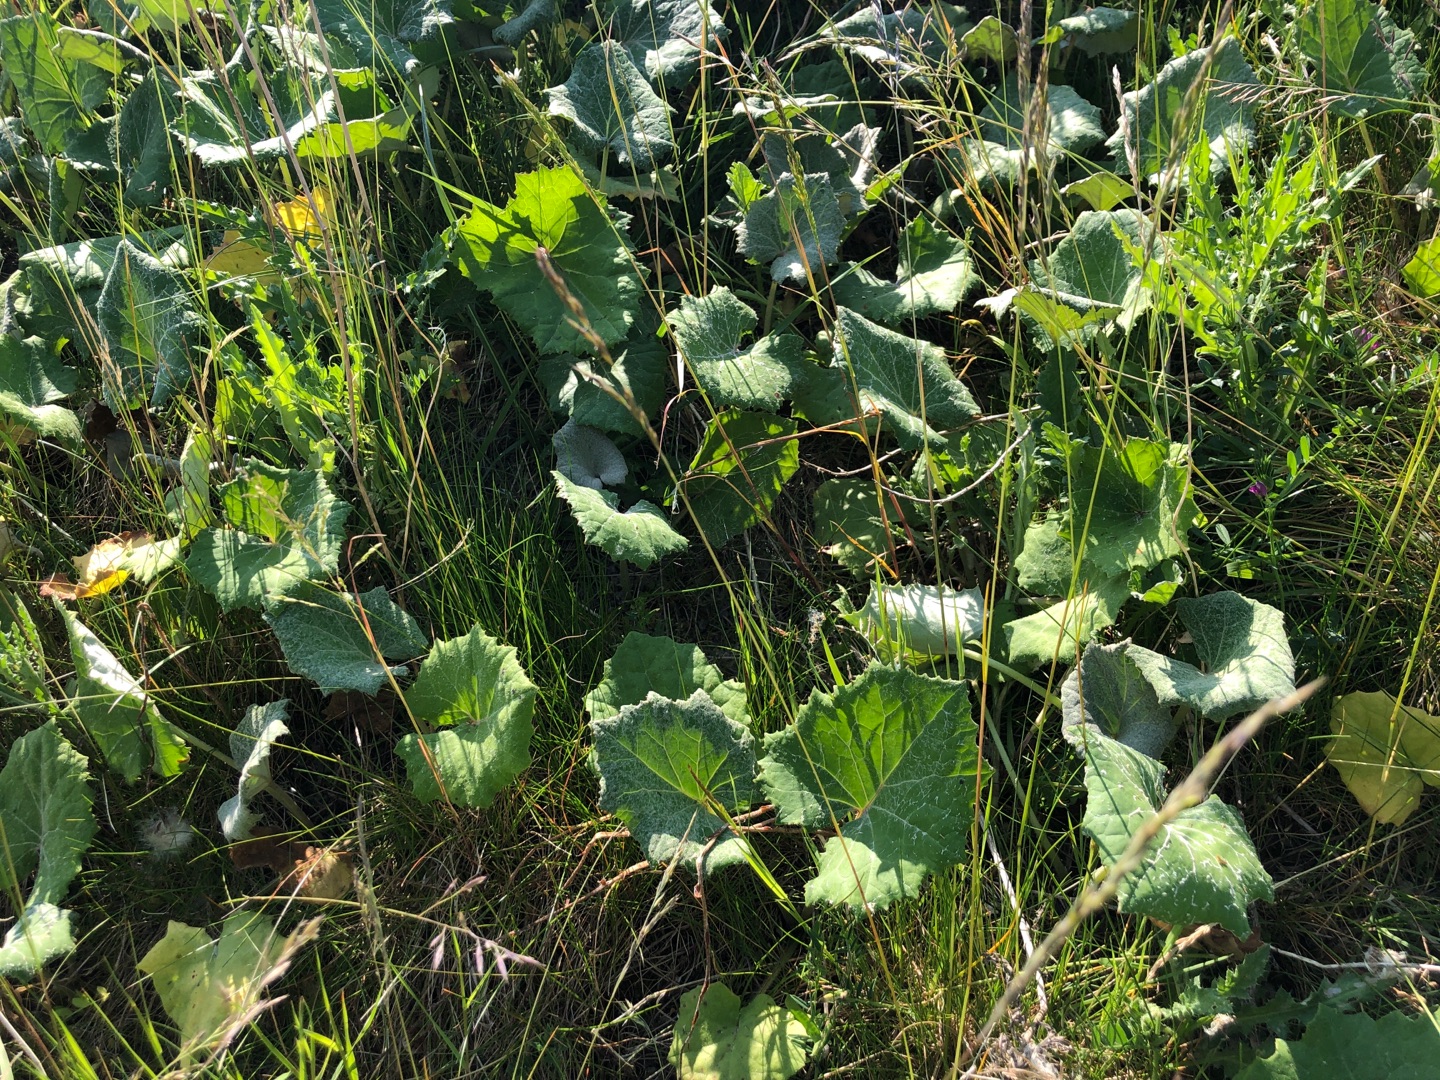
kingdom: Plantae
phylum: Tracheophyta
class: Magnoliopsida
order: Asterales
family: Asteraceae
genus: Tussilago
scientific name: Tussilago farfara
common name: Følfod
